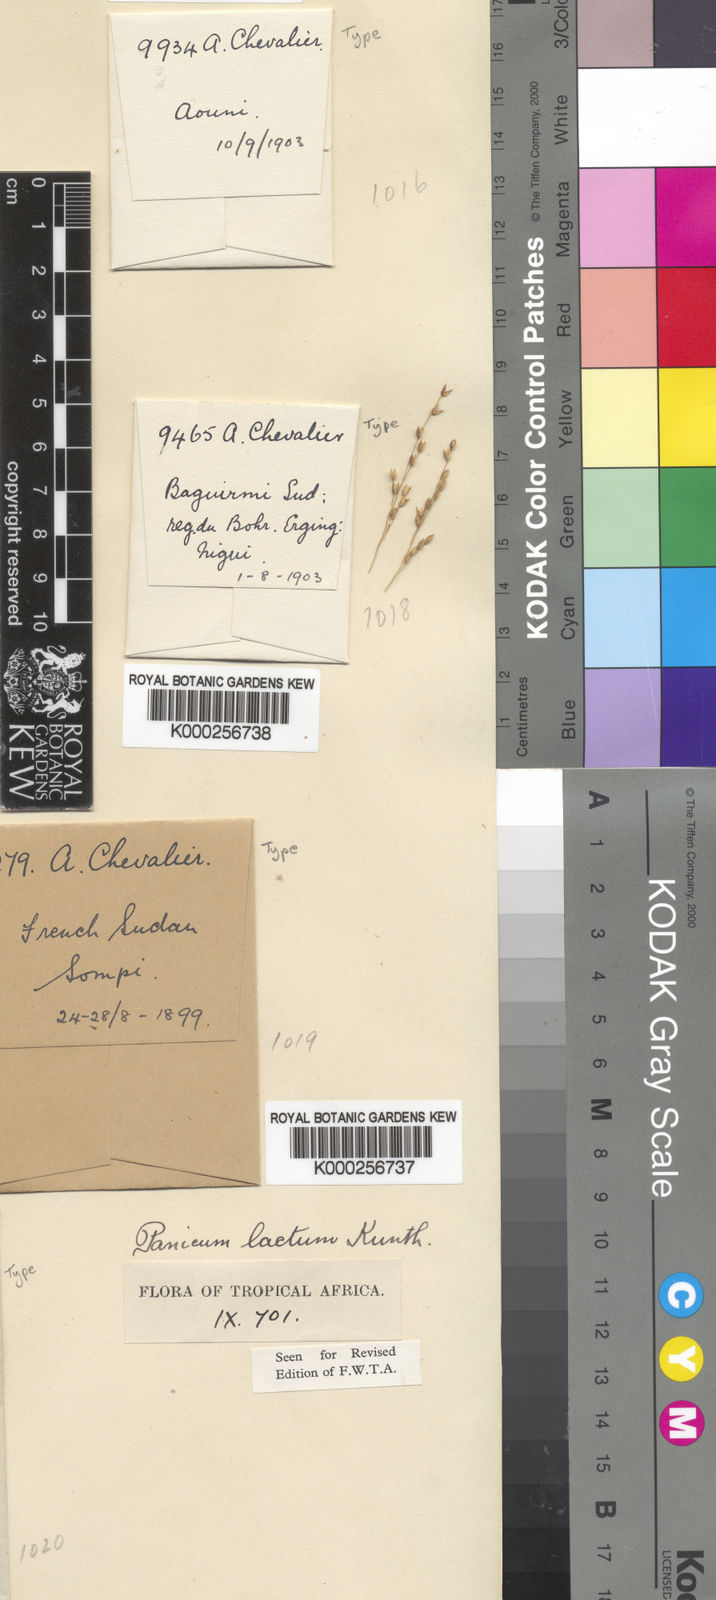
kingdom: Plantae
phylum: Tracheophyta
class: Liliopsida
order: Poales
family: Poaceae
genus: Panicum
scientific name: Panicum laetum
